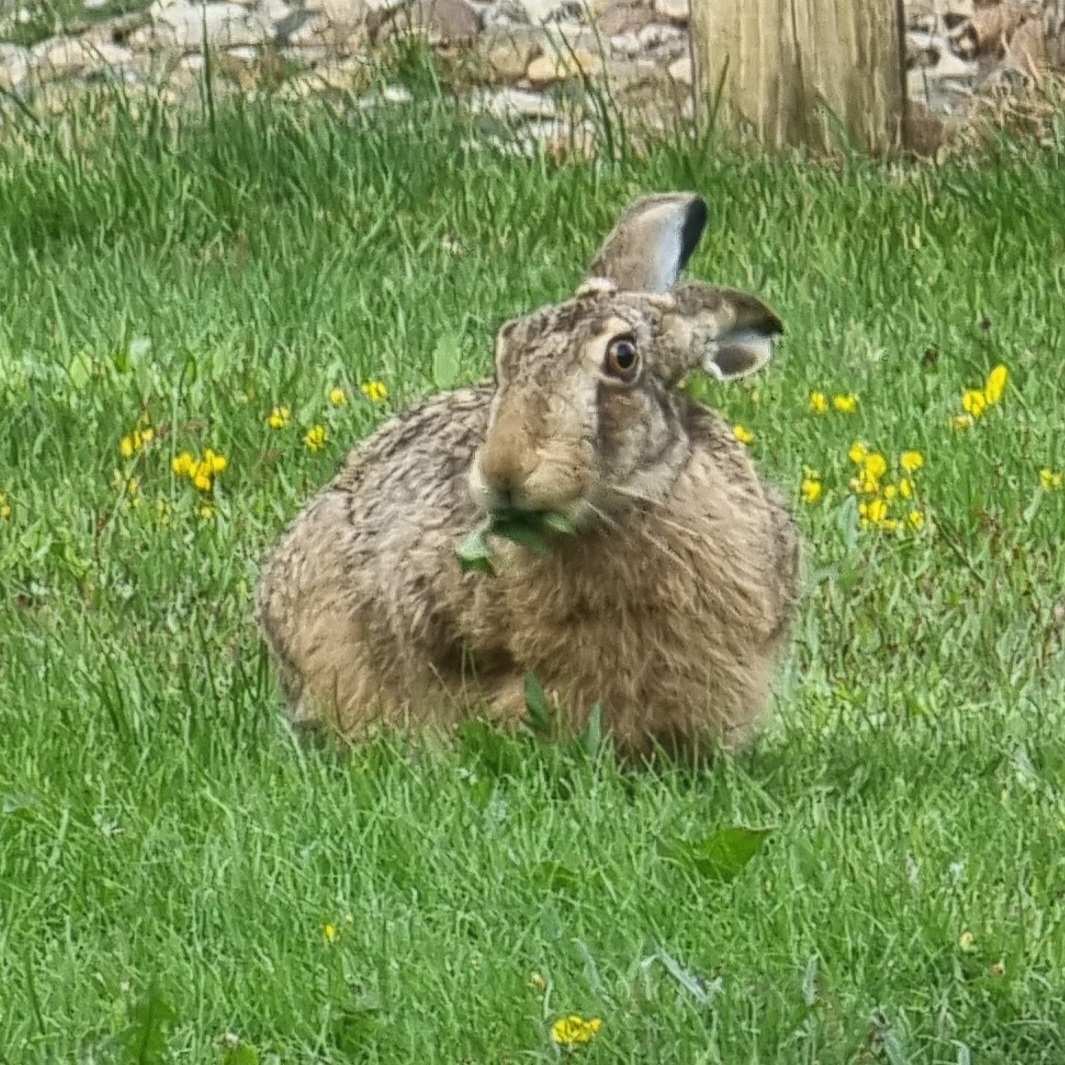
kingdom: Animalia
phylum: Chordata
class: Mammalia
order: Lagomorpha
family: Leporidae
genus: Lepus
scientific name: Lepus europaeus
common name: Hare
